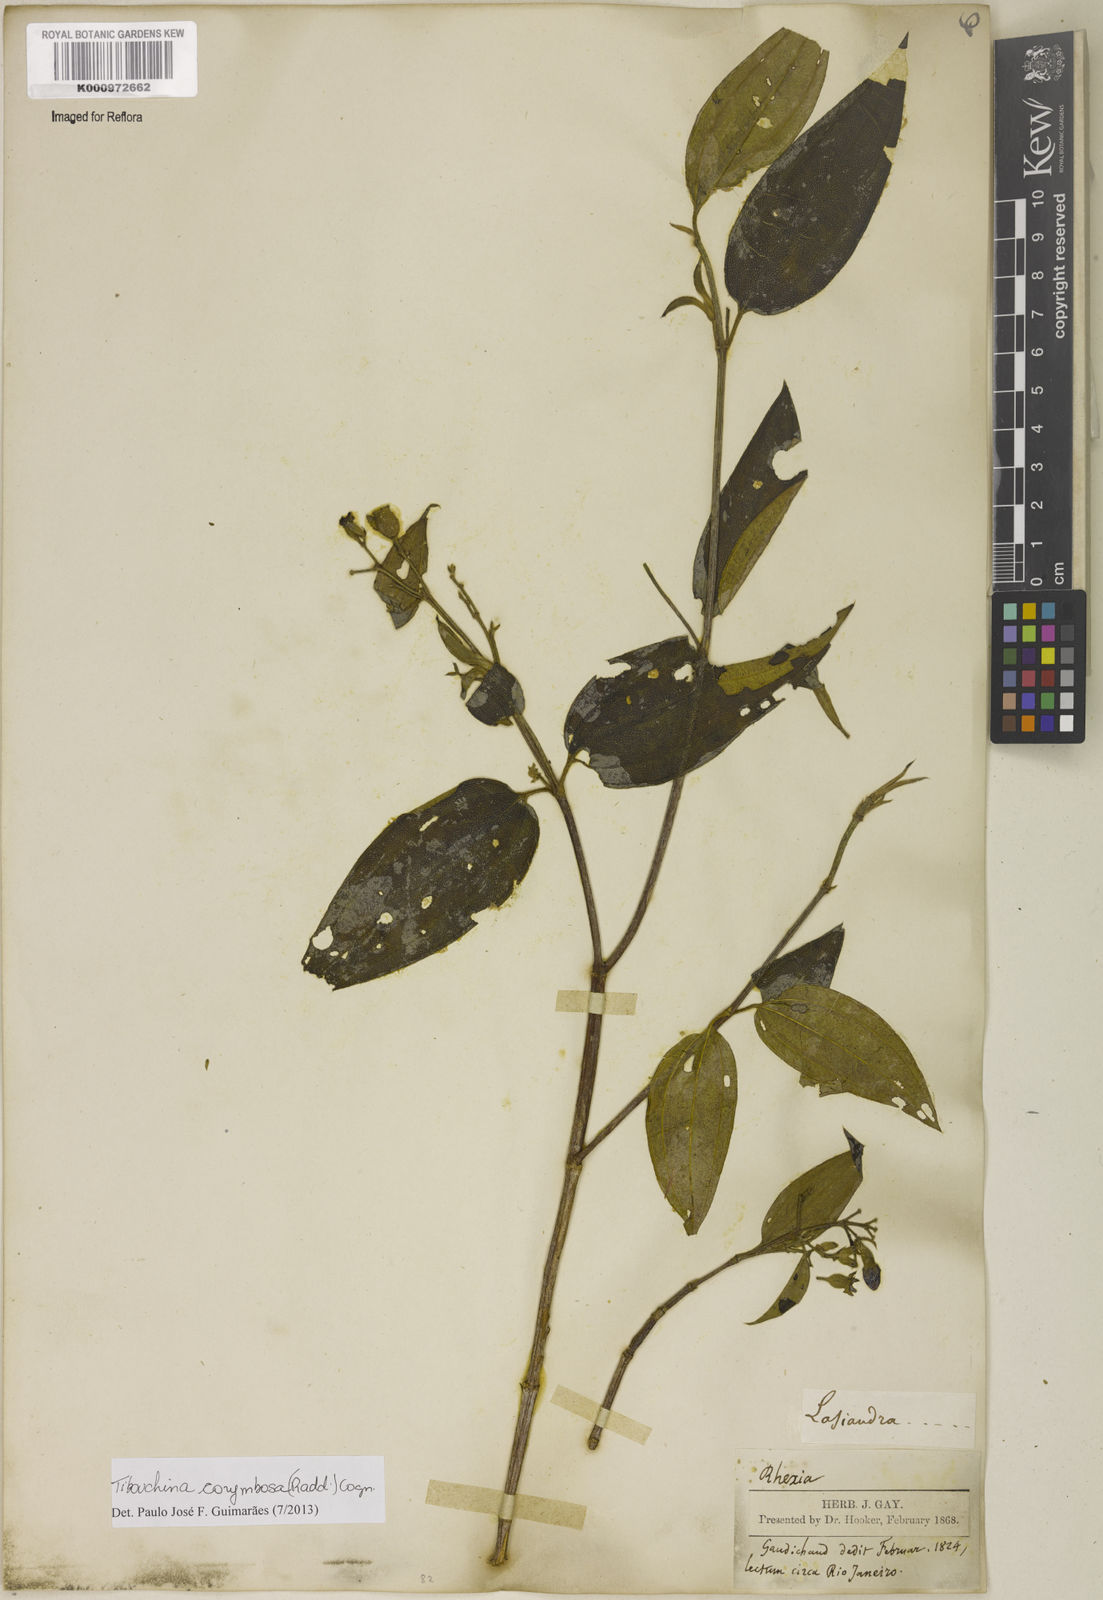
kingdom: Plantae
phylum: Tracheophyta
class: Magnoliopsida
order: Myrtales
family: Melastomataceae
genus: Pleroma
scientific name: Pleroma vimineum
